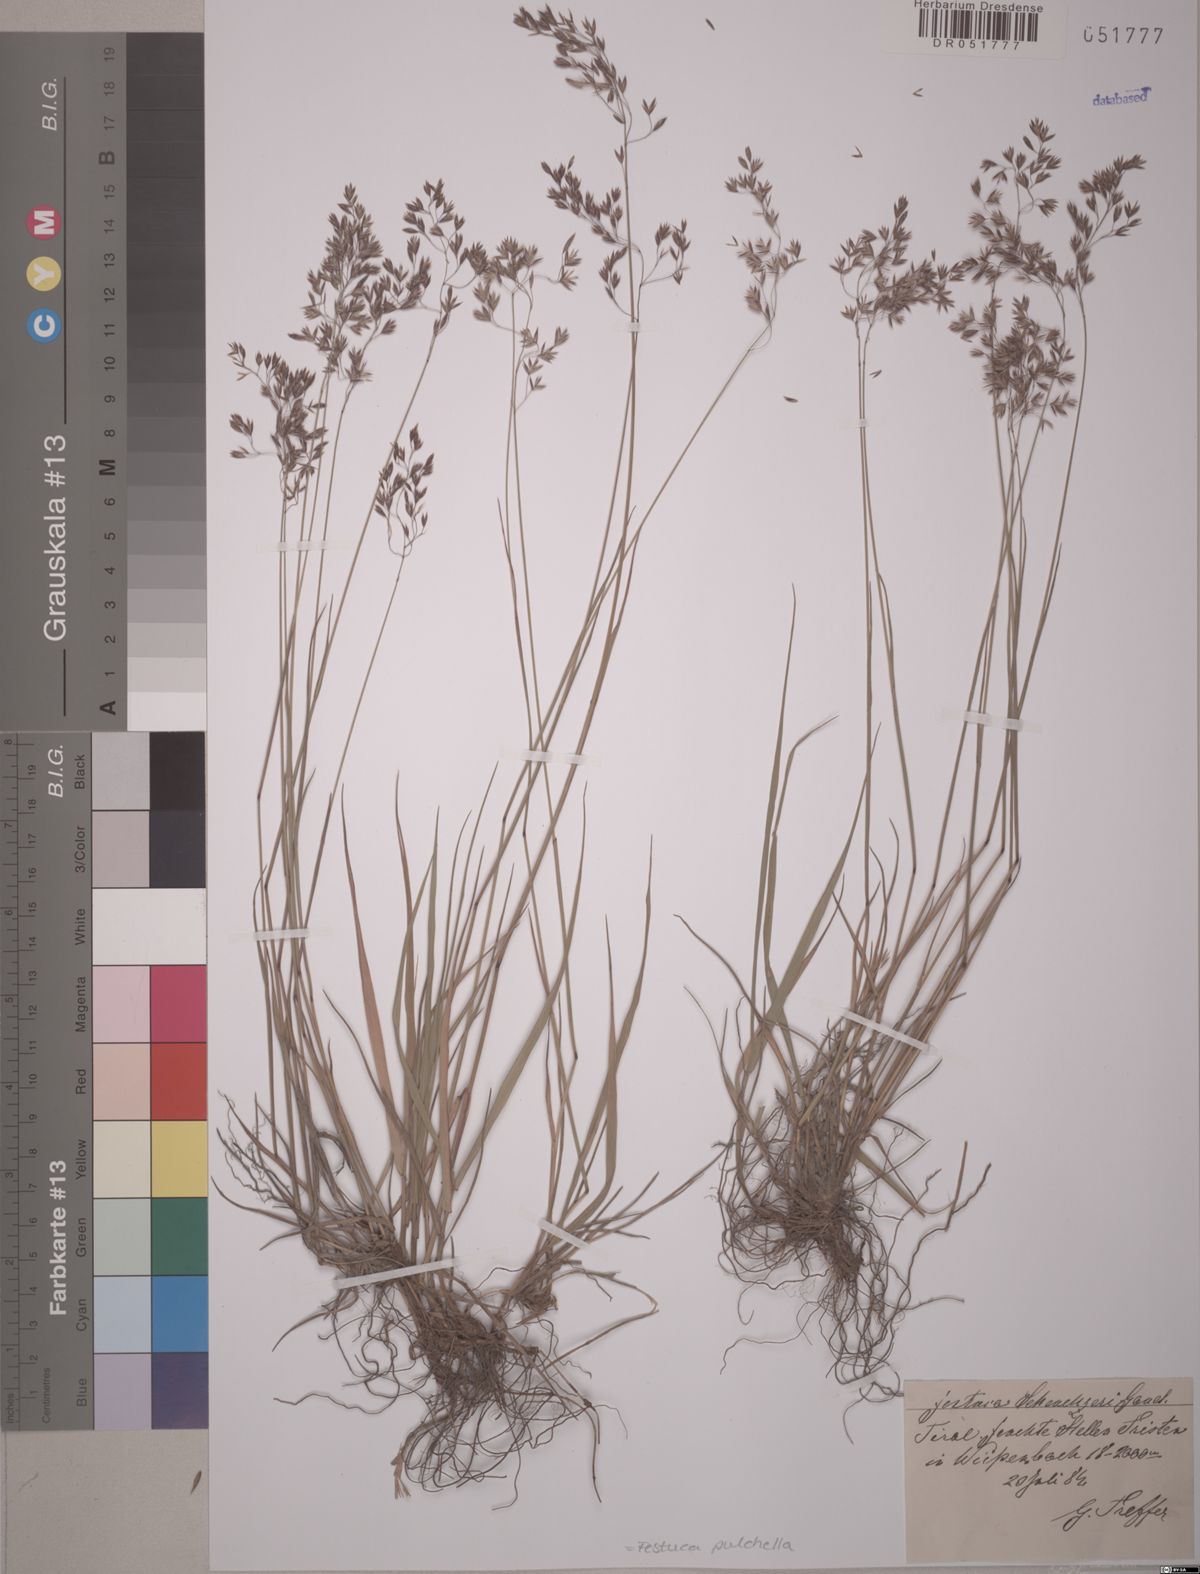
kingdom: Plantae
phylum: Tracheophyta
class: Liliopsida
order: Poales
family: Poaceae
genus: Festuca
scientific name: Festuca pulchella
